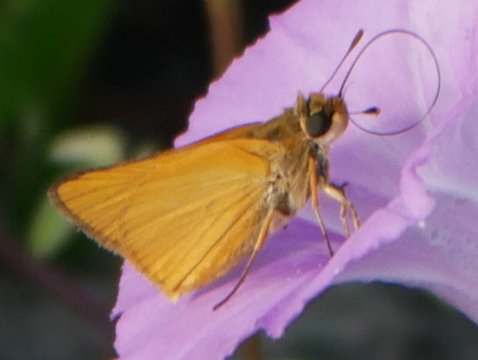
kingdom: Animalia
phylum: Arthropoda
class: Insecta
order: Lepidoptera
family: Hesperiidae
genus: Atrytone
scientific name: Atrytone delaware
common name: Delaware Skipper
